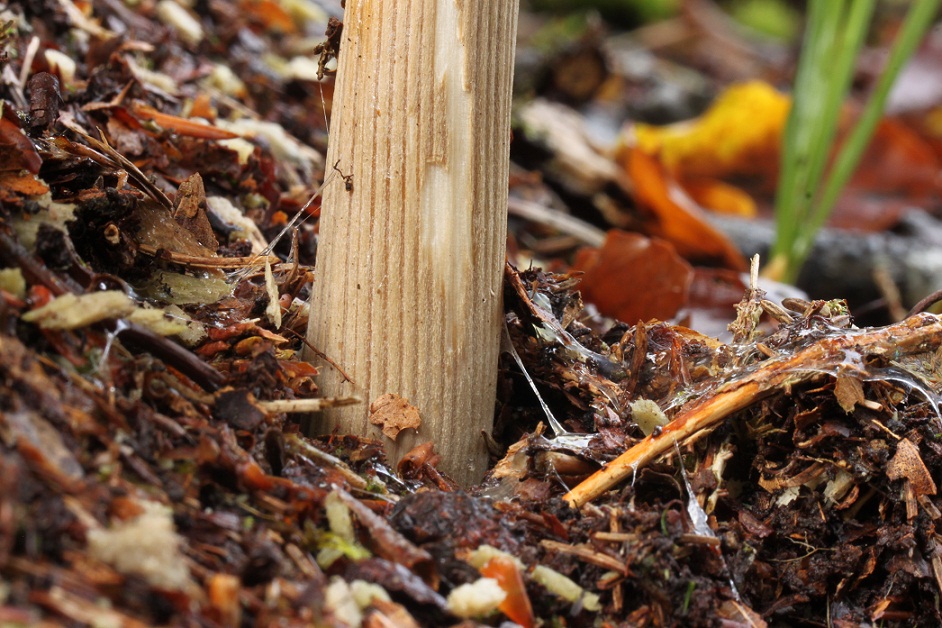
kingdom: Fungi
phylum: Basidiomycota
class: Agaricomycetes
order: Agaricales
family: Physalacriaceae
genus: Hymenopellis
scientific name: Hymenopellis radicata
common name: almindelig pælerodshat
